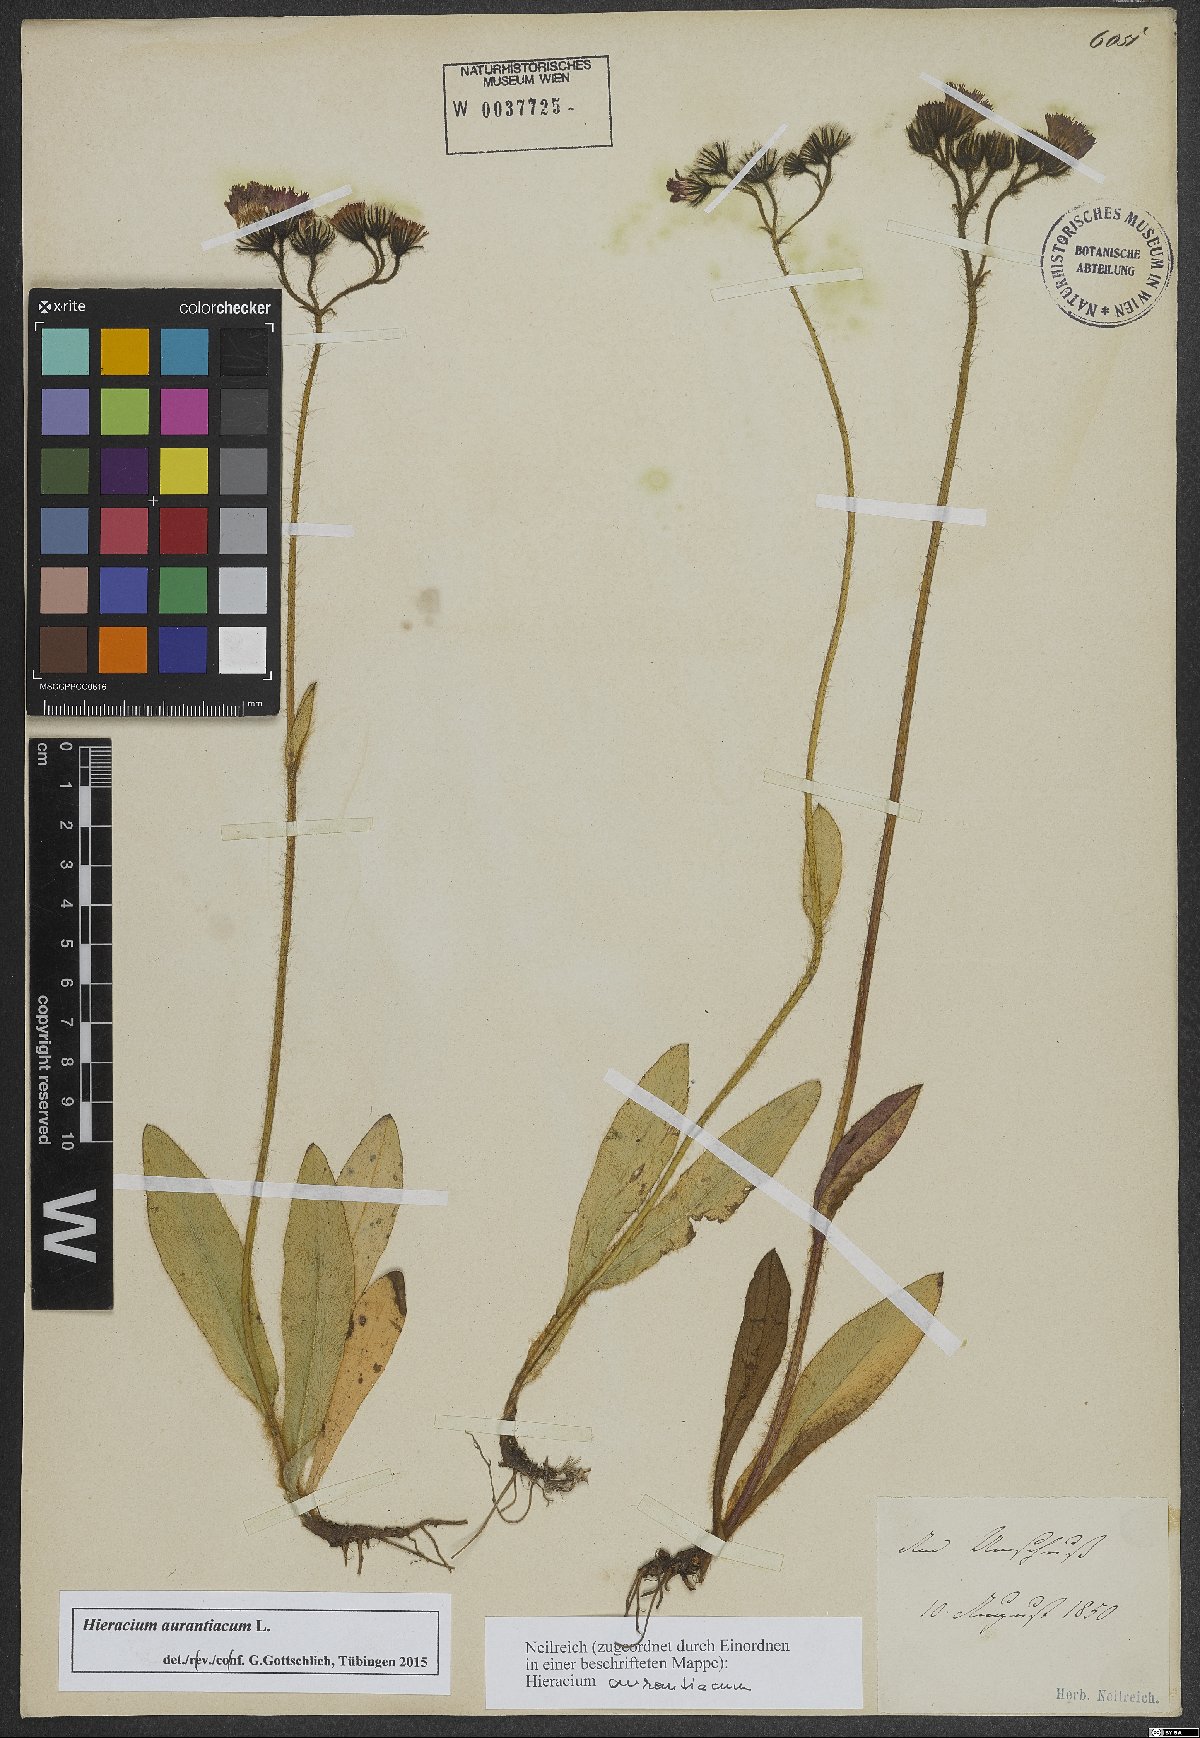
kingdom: Plantae
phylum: Tracheophyta
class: Magnoliopsida
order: Asterales
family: Asteraceae
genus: Pilosella
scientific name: Pilosella aurantiaca
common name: Fox-and-cubs
